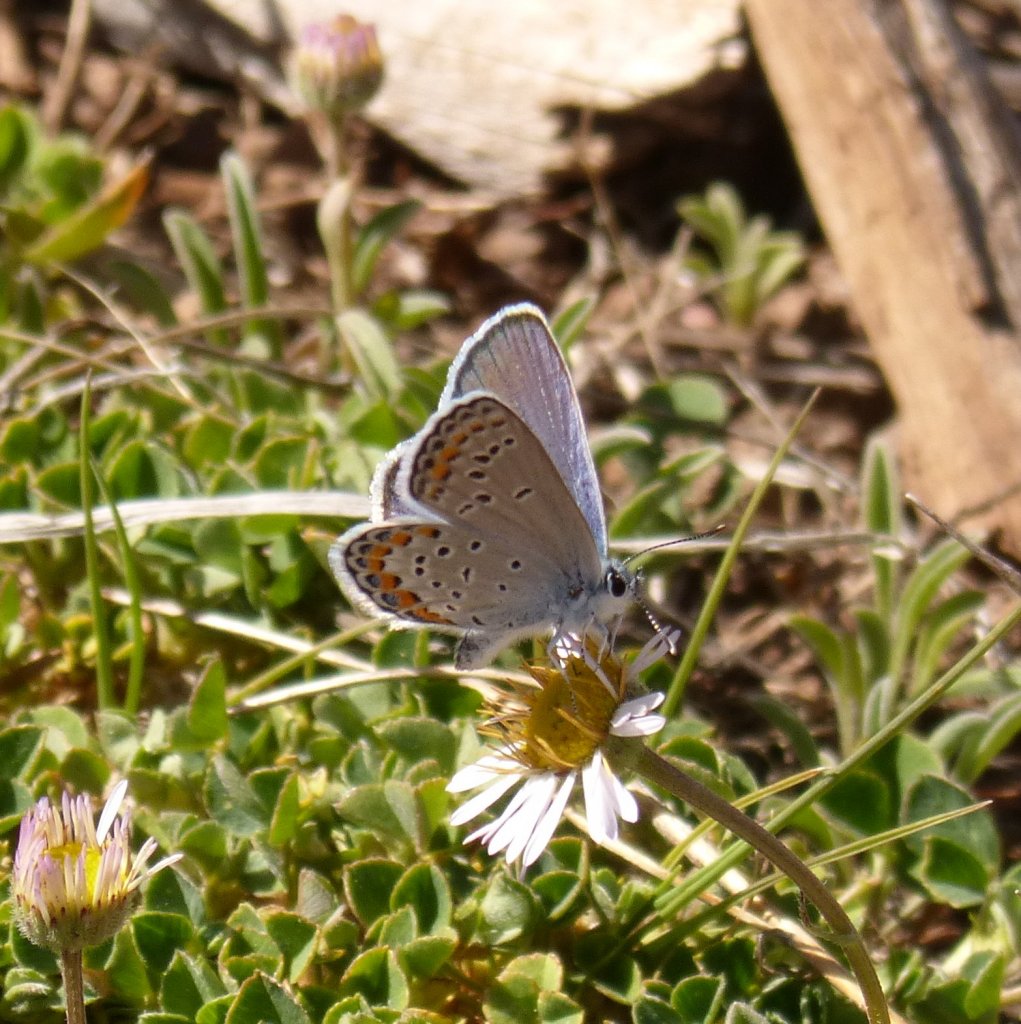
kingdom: Animalia
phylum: Arthropoda
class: Insecta
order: Lepidoptera
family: Lycaenidae
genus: Lycaeides
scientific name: Lycaeides melissa
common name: Melissa Blue
